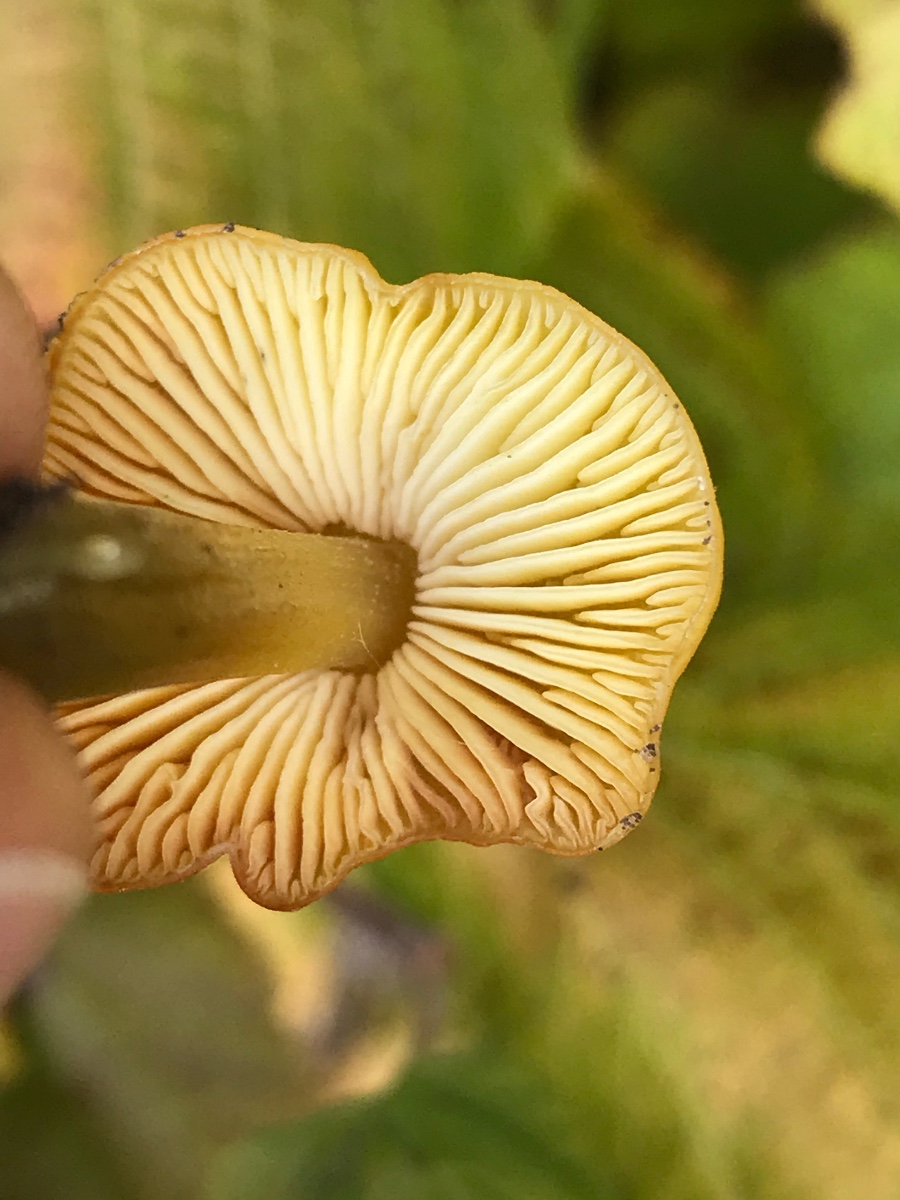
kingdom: Fungi
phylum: Basidiomycota
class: Agaricomycetes
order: Agaricales
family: Hygrophoraceae
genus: Hygrocybe
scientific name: Hygrocybe conica
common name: kegle-vokshat
